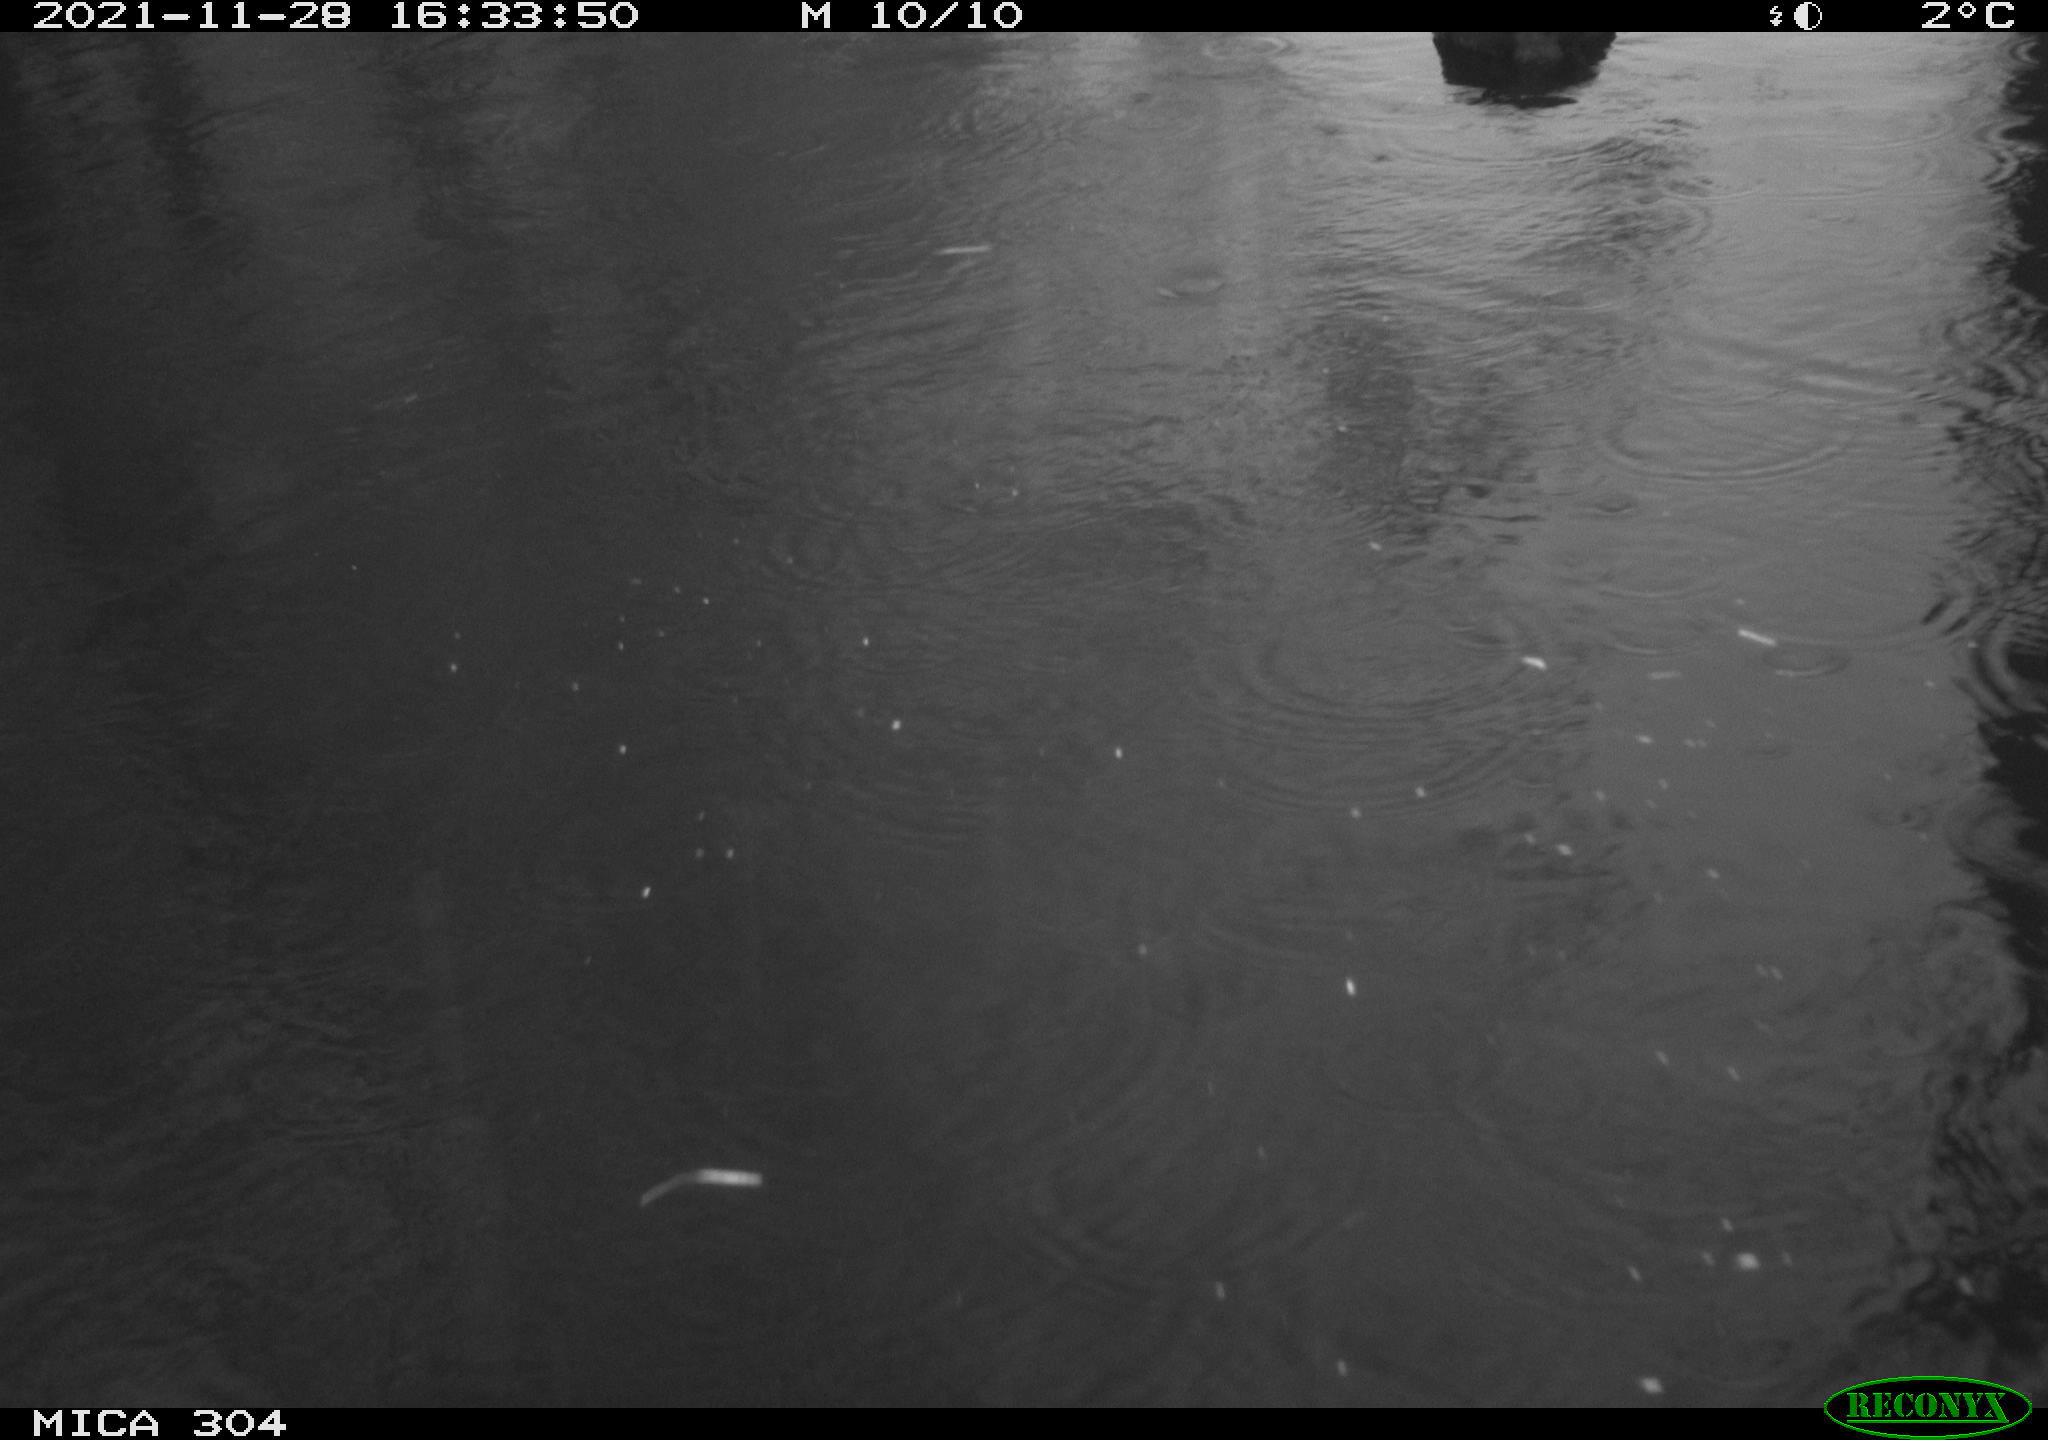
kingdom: Animalia
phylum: Chordata
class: Aves
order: Gruiformes
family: Rallidae
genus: Fulica
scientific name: Fulica atra
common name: Eurasian coot
